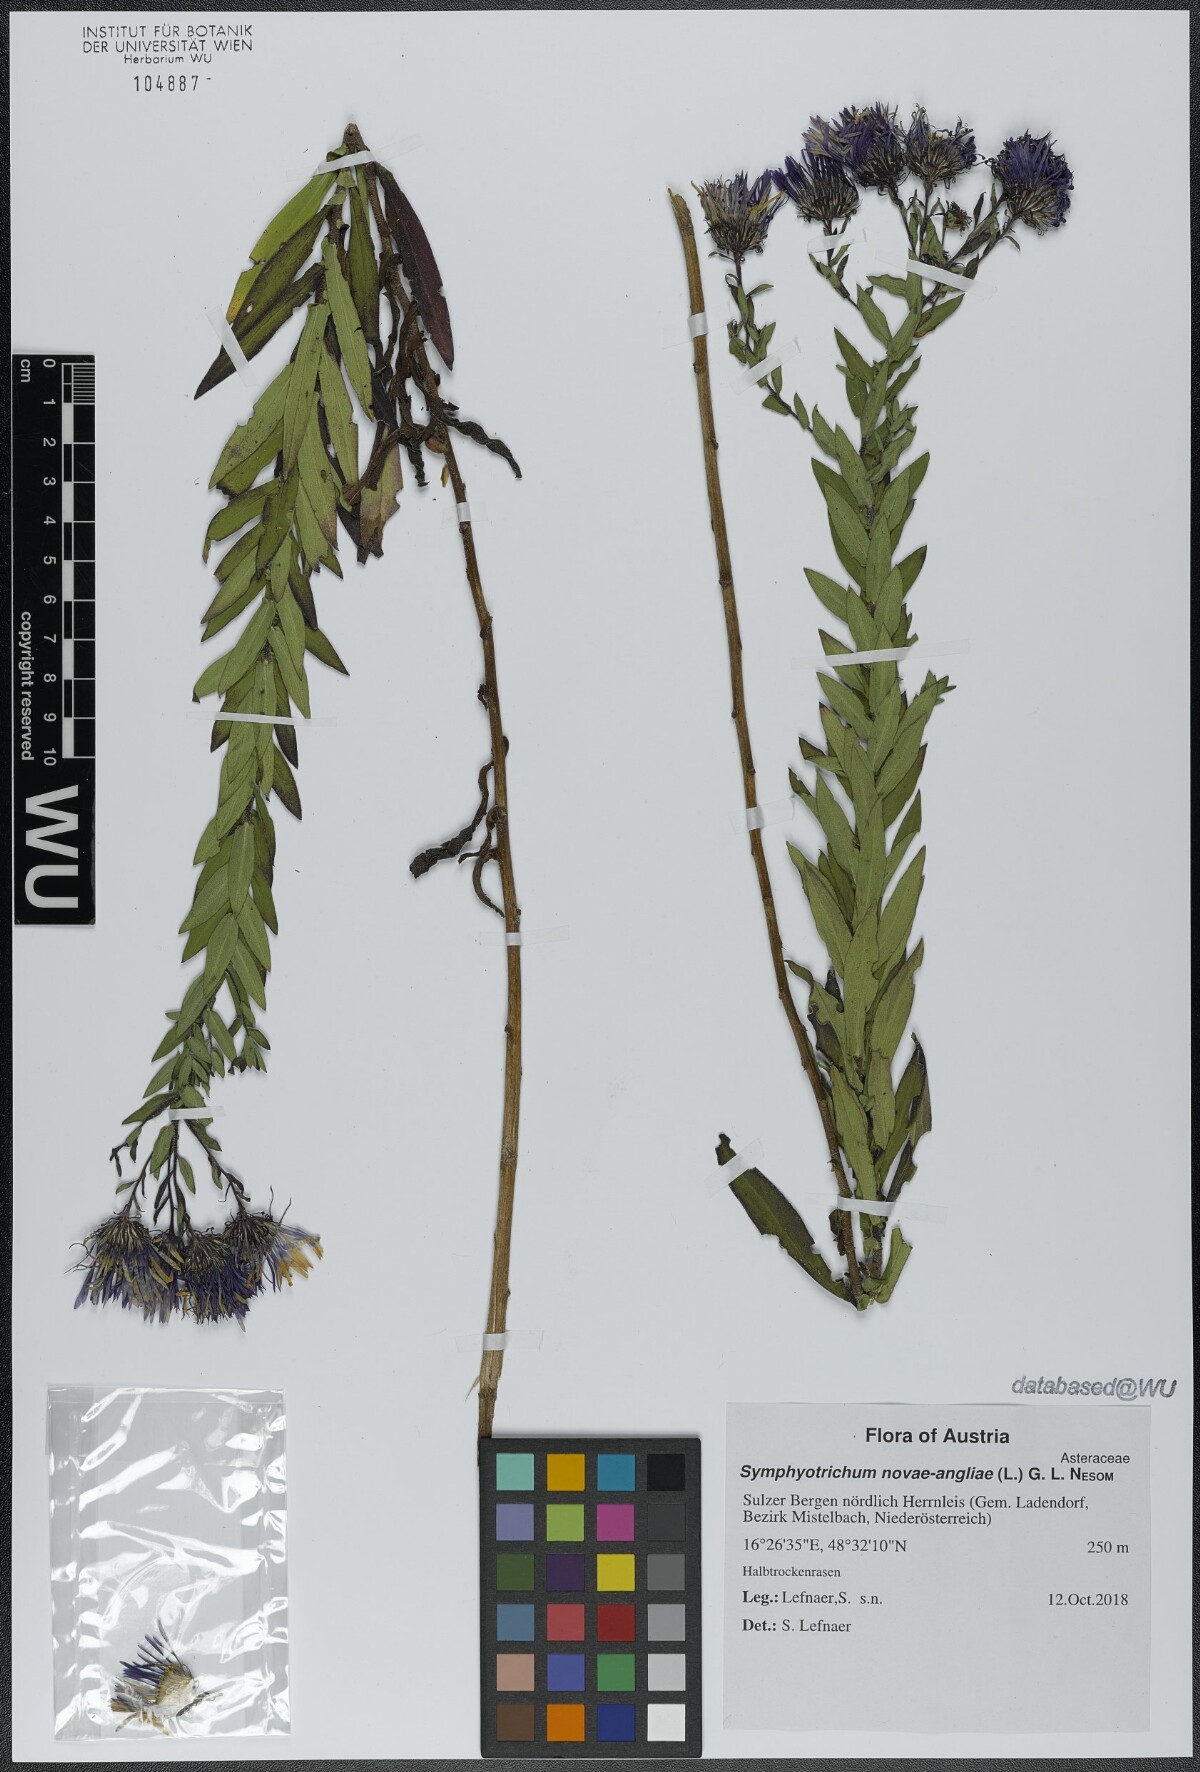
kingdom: Plantae
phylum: Tracheophyta
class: Magnoliopsida
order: Asterales
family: Asteraceae
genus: Symphyotrichum
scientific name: Symphyotrichum novae-angliae
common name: Michaelmas daisy
